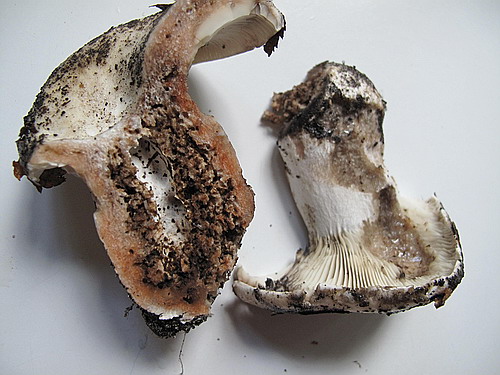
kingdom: Fungi
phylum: Basidiomycota
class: Agaricomycetes
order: Russulales
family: Russulaceae
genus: Russula
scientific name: Russula adusta
